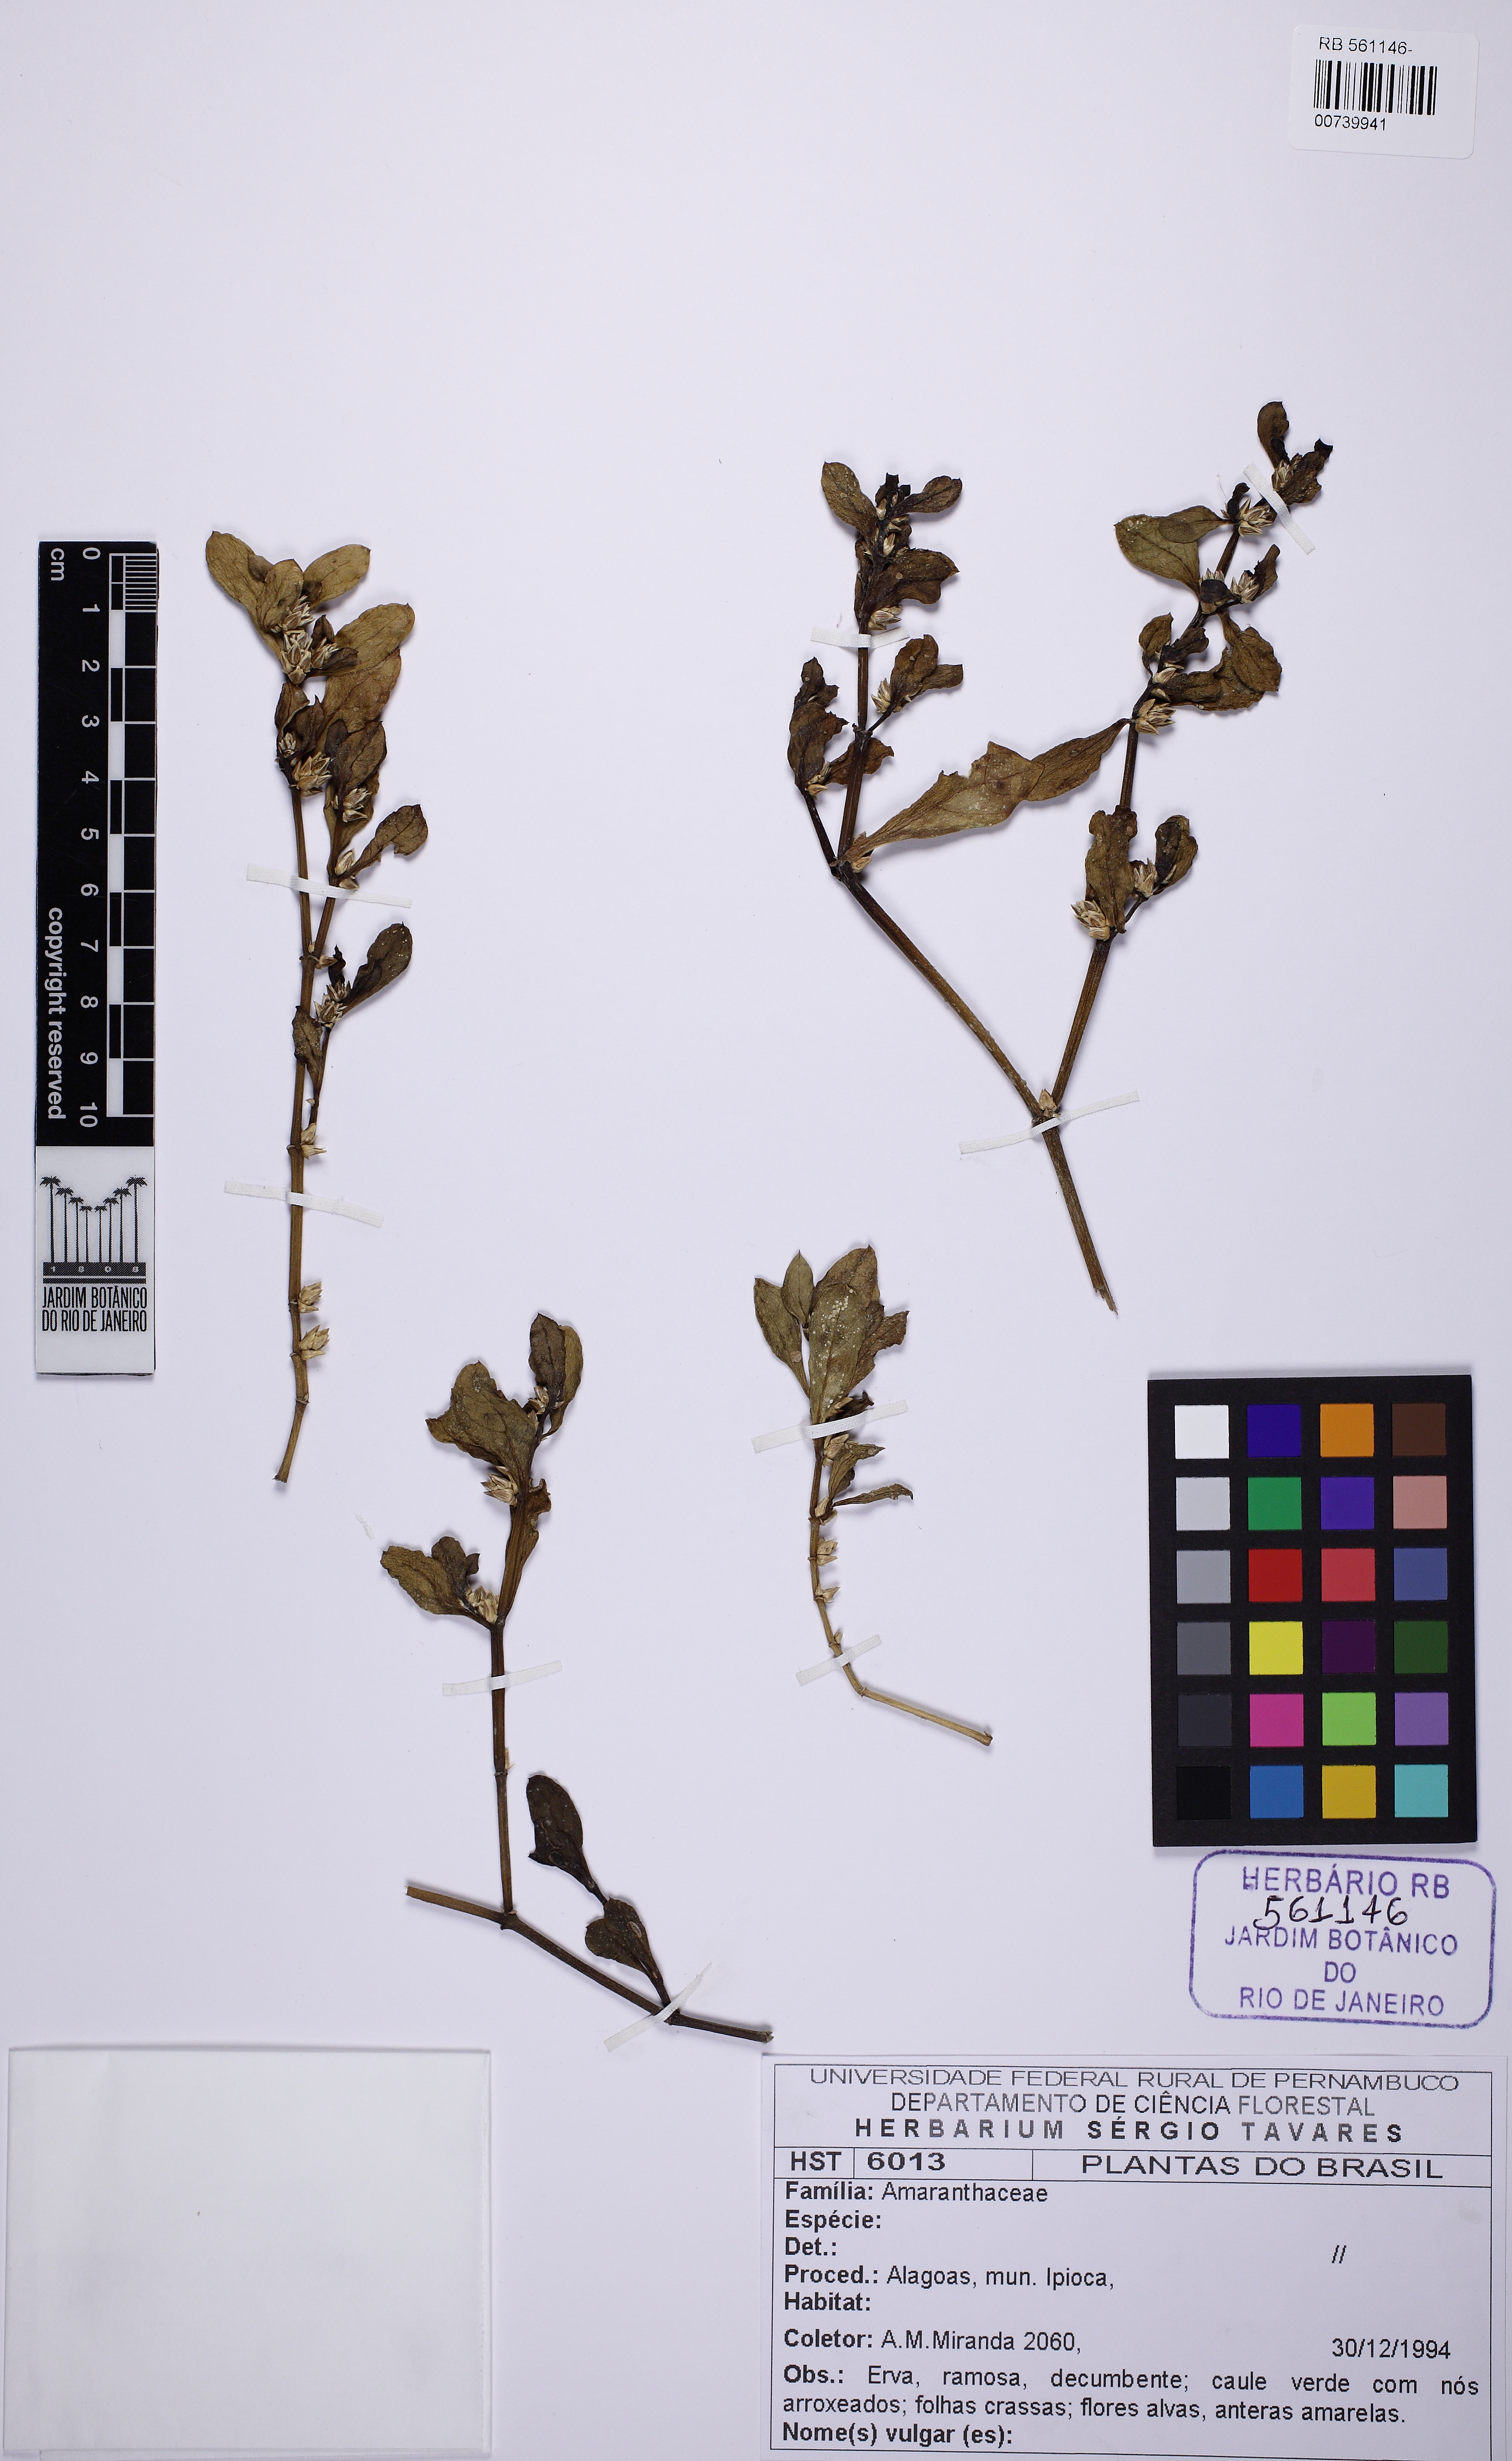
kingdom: Plantae
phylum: Tracheophyta
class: Magnoliopsida
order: Caryophyllales
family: Amaranthaceae
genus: Alternanthera
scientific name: Alternanthera littoralis
